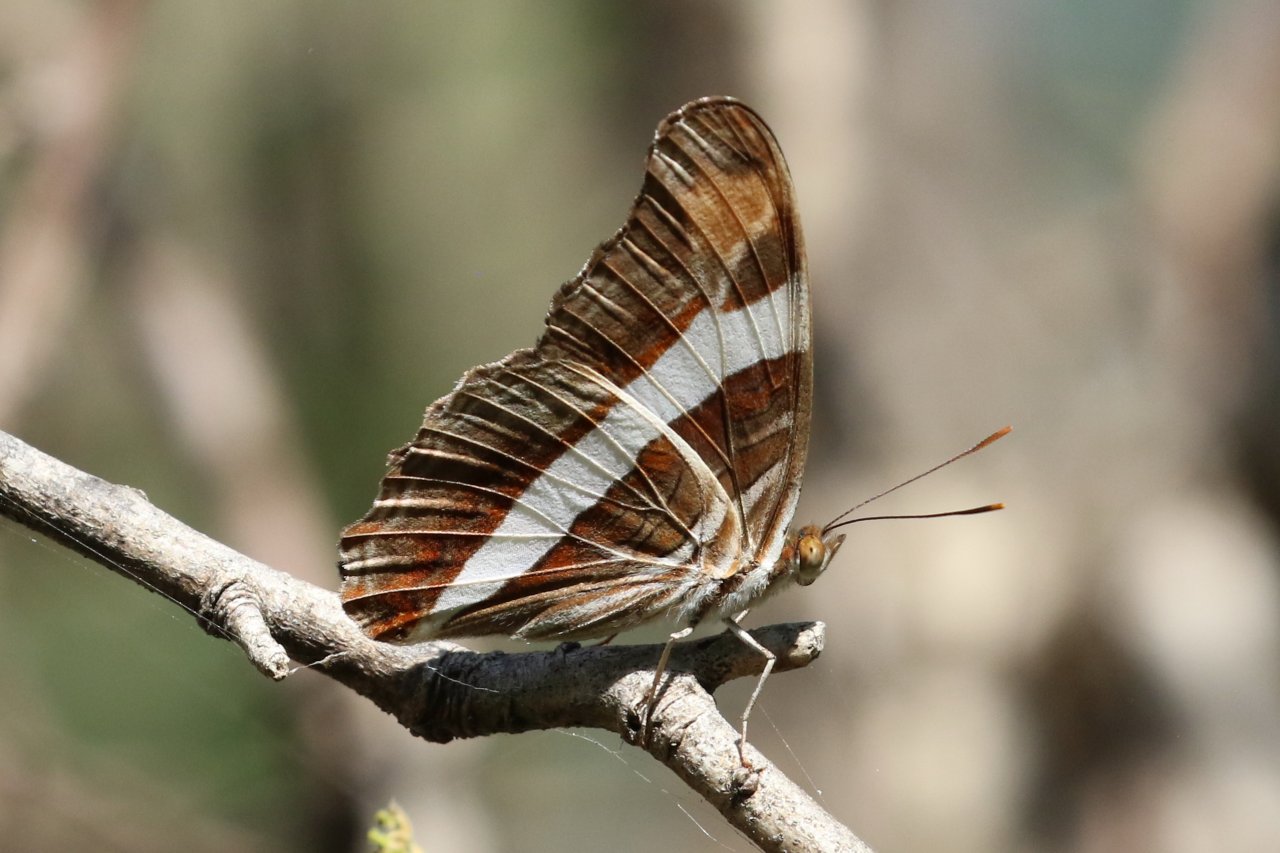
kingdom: Animalia
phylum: Arthropoda
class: Insecta
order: Lepidoptera
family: Nymphalidae
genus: Limenitis
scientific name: Limenitis fessonia
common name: Band-celled Sister
